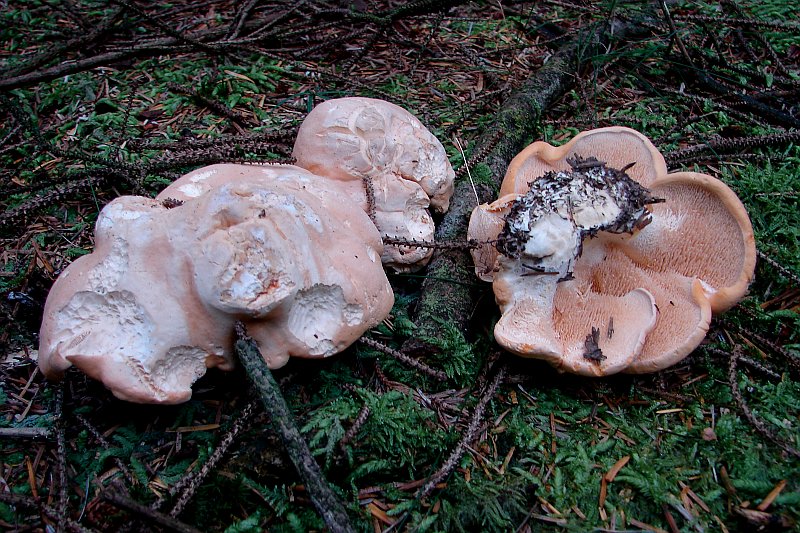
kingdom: Fungi
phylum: Basidiomycota
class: Agaricomycetes
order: Cantharellales
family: Hydnaceae
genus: Hydnum
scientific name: Hydnum repandum
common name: almindelig pigsvamp
